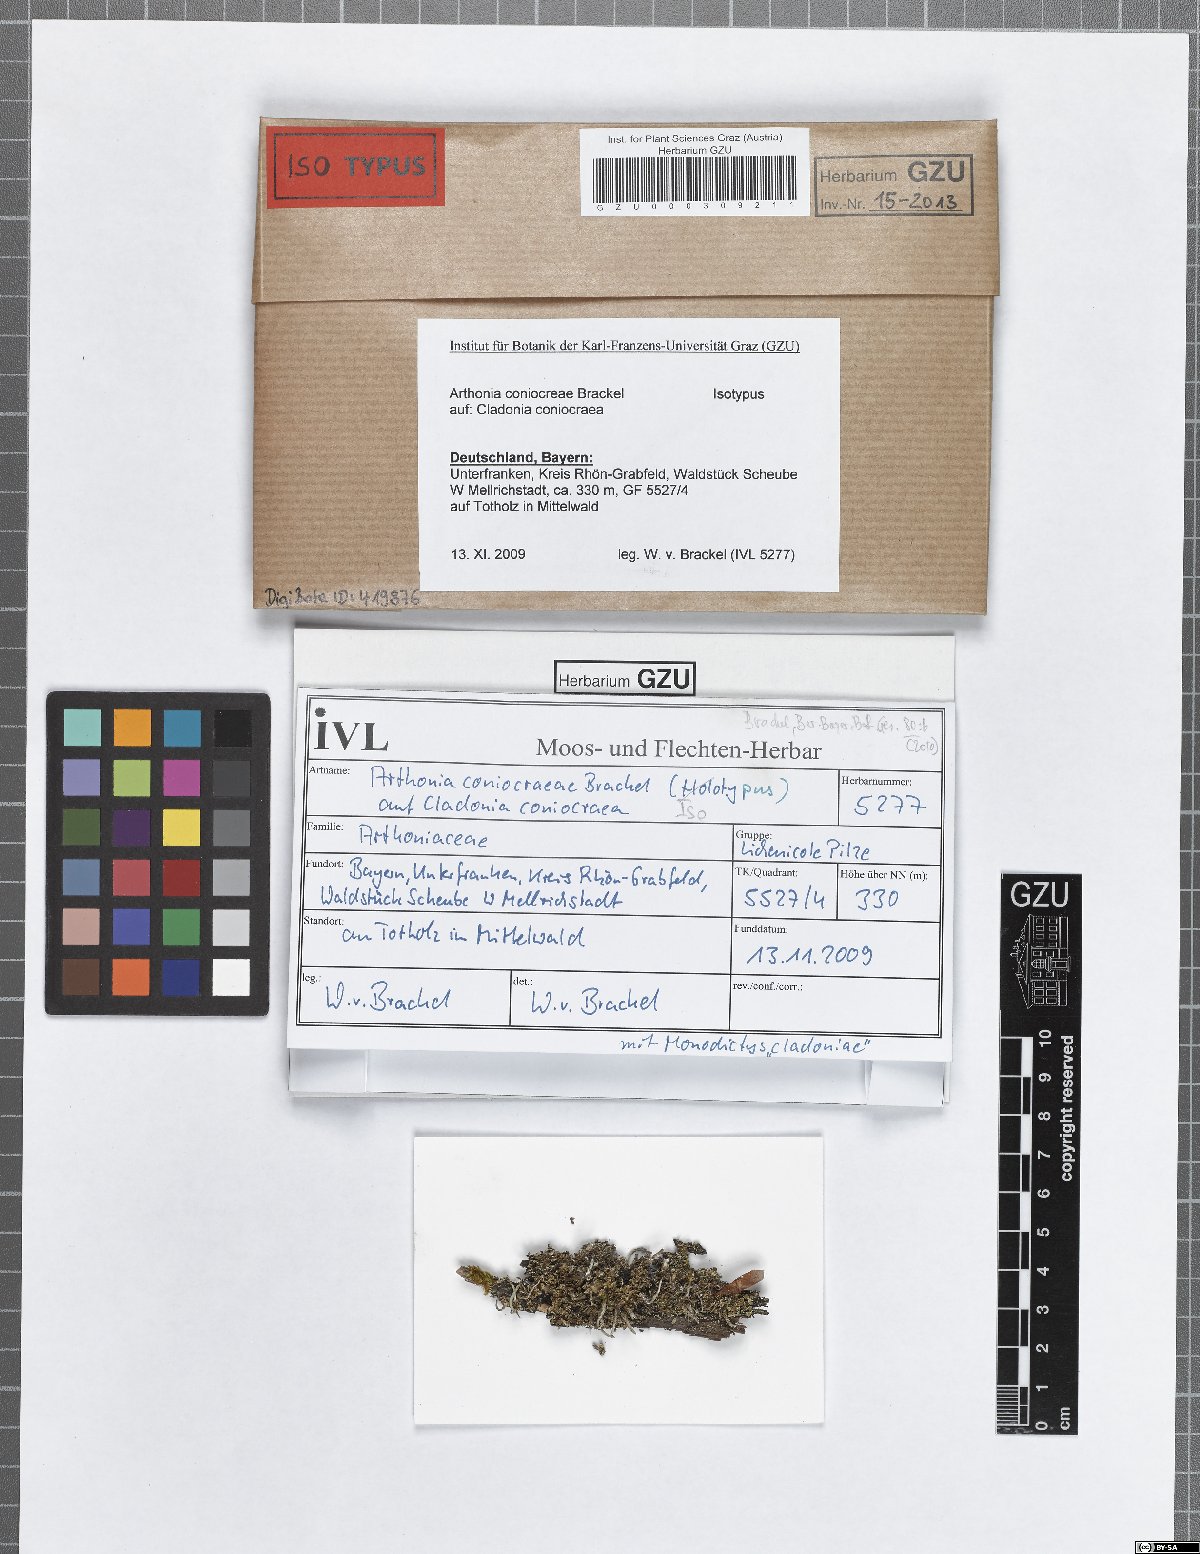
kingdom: Fungi
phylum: Ascomycota
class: Arthoniomycetes
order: Arthoniales
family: Arthoniaceae
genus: Arthonia
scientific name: Arthonia coniocraeae
